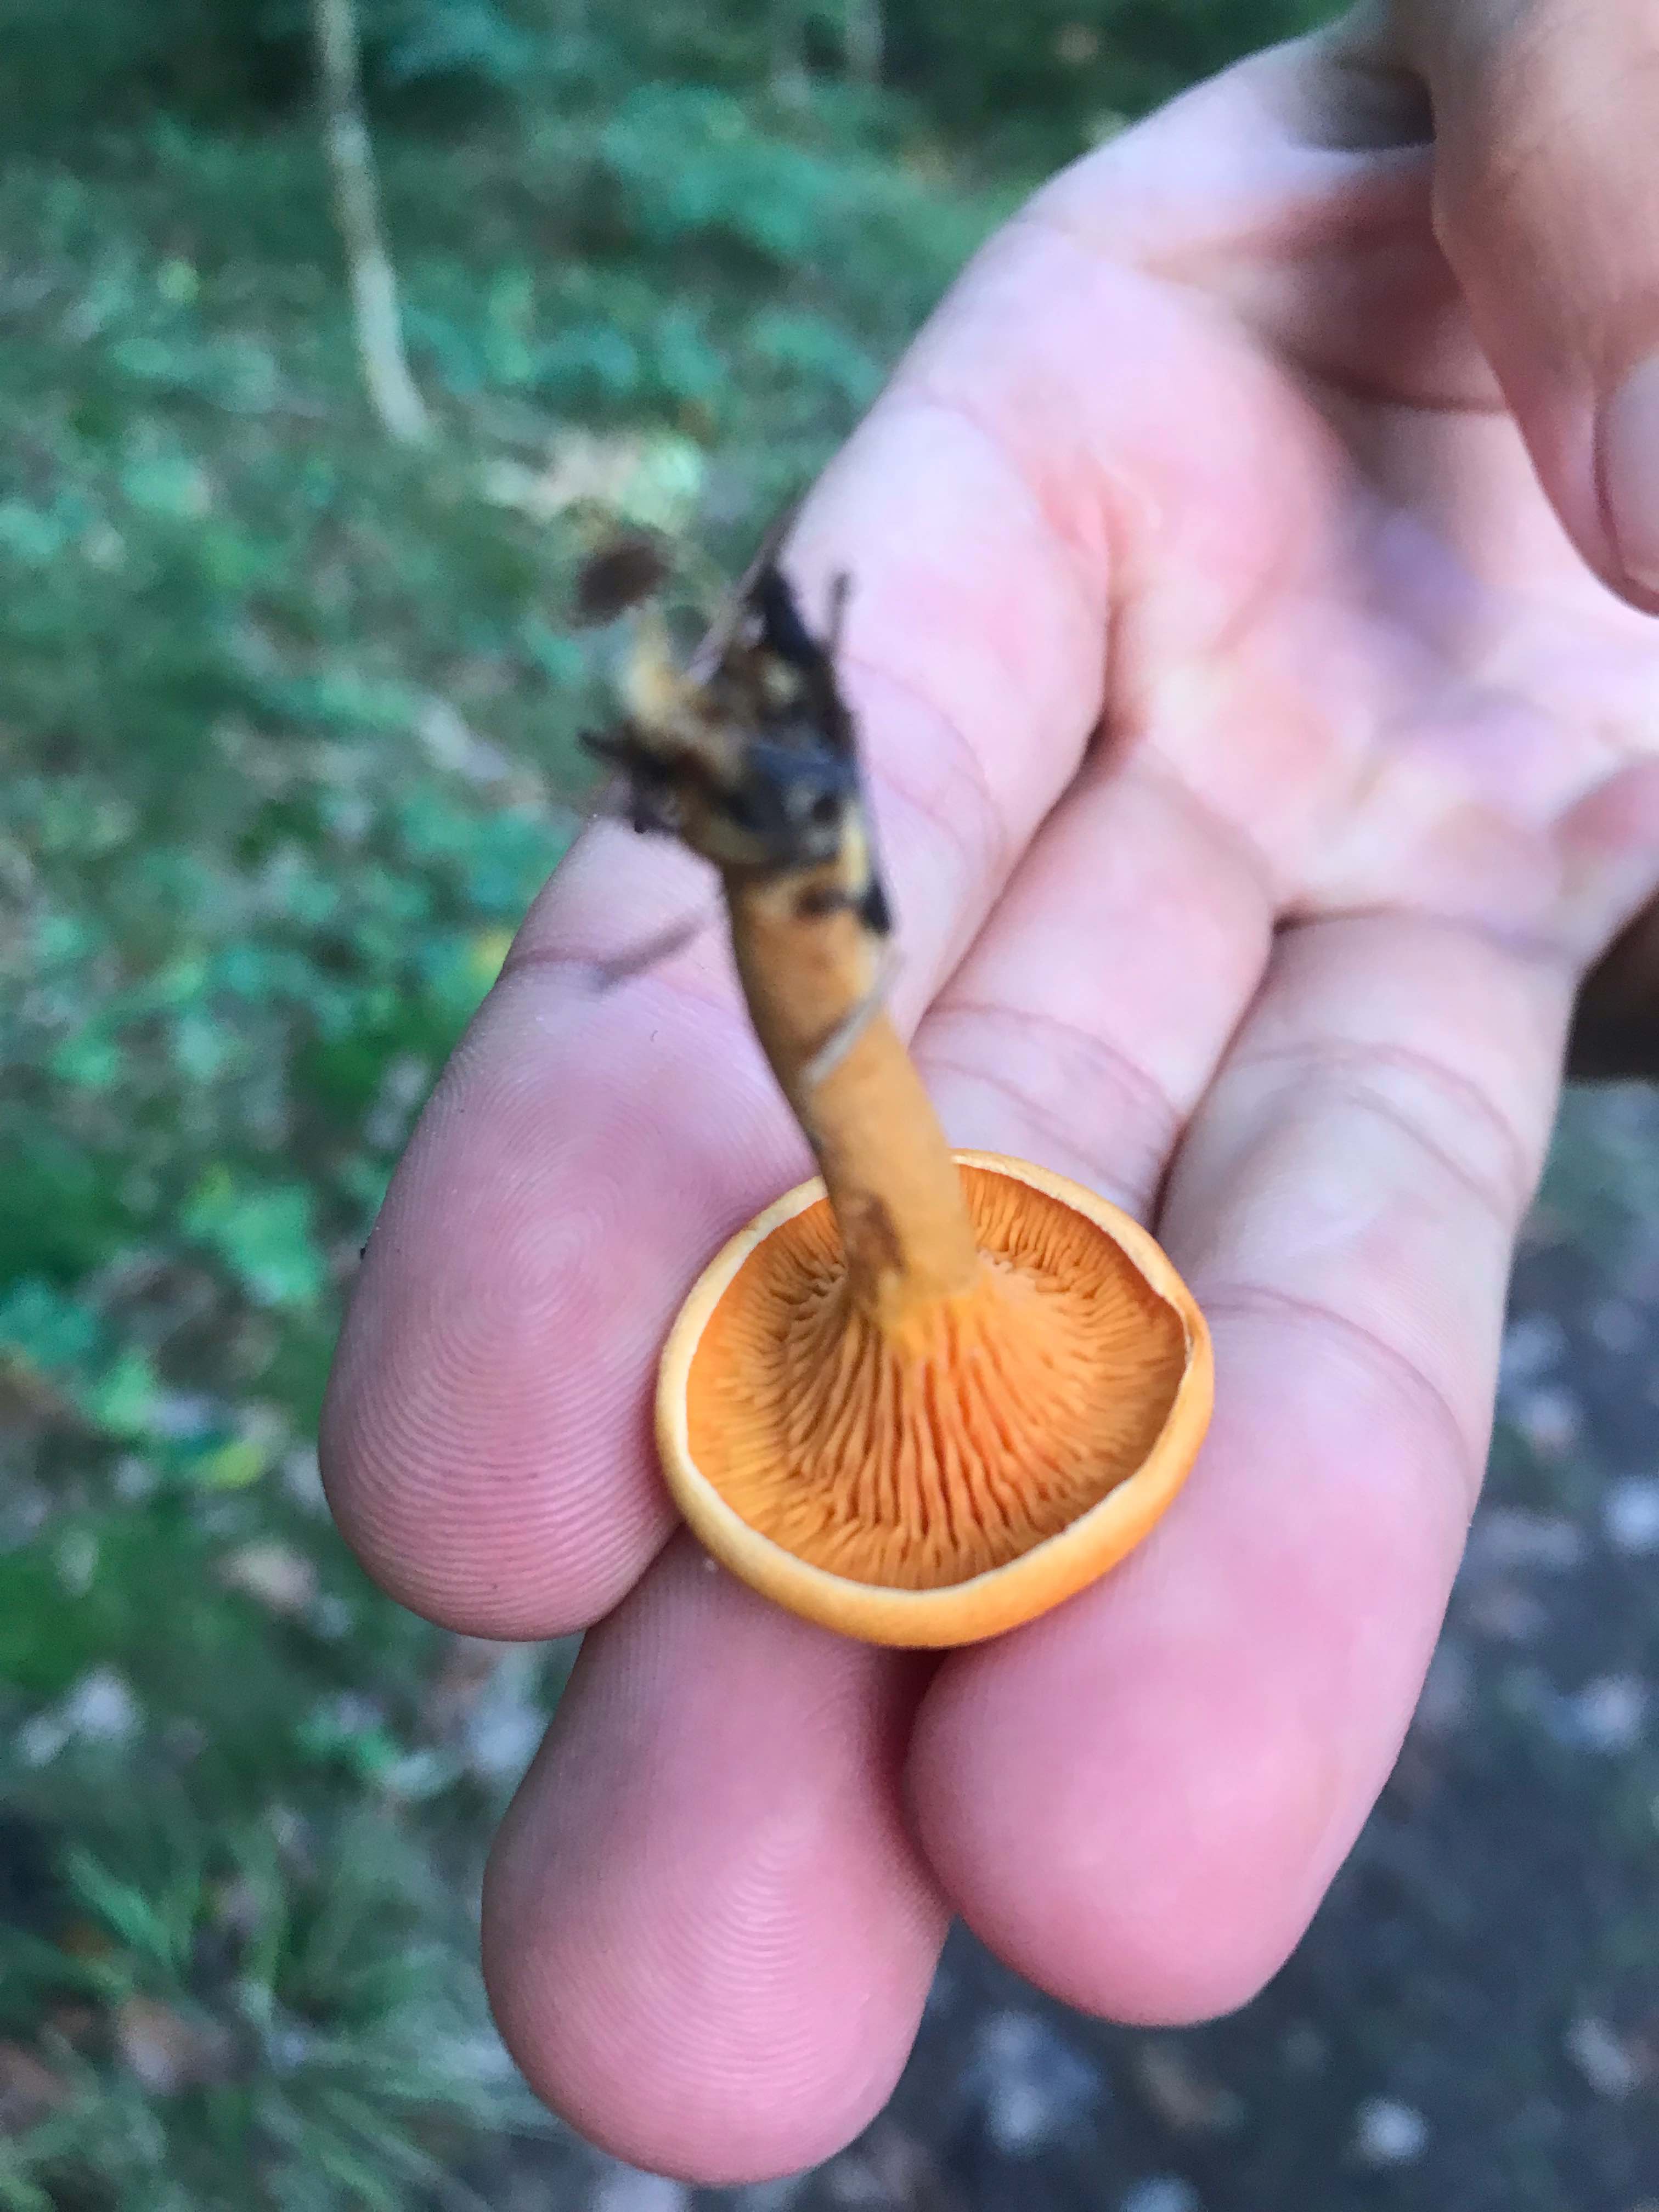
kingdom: Fungi
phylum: Basidiomycota
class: Agaricomycetes
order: Boletales
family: Hygrophoropsidaceae
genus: Hygrophoropsis
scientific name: Hygrophoropsis aurantiaca
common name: almindelig orangekantarel
